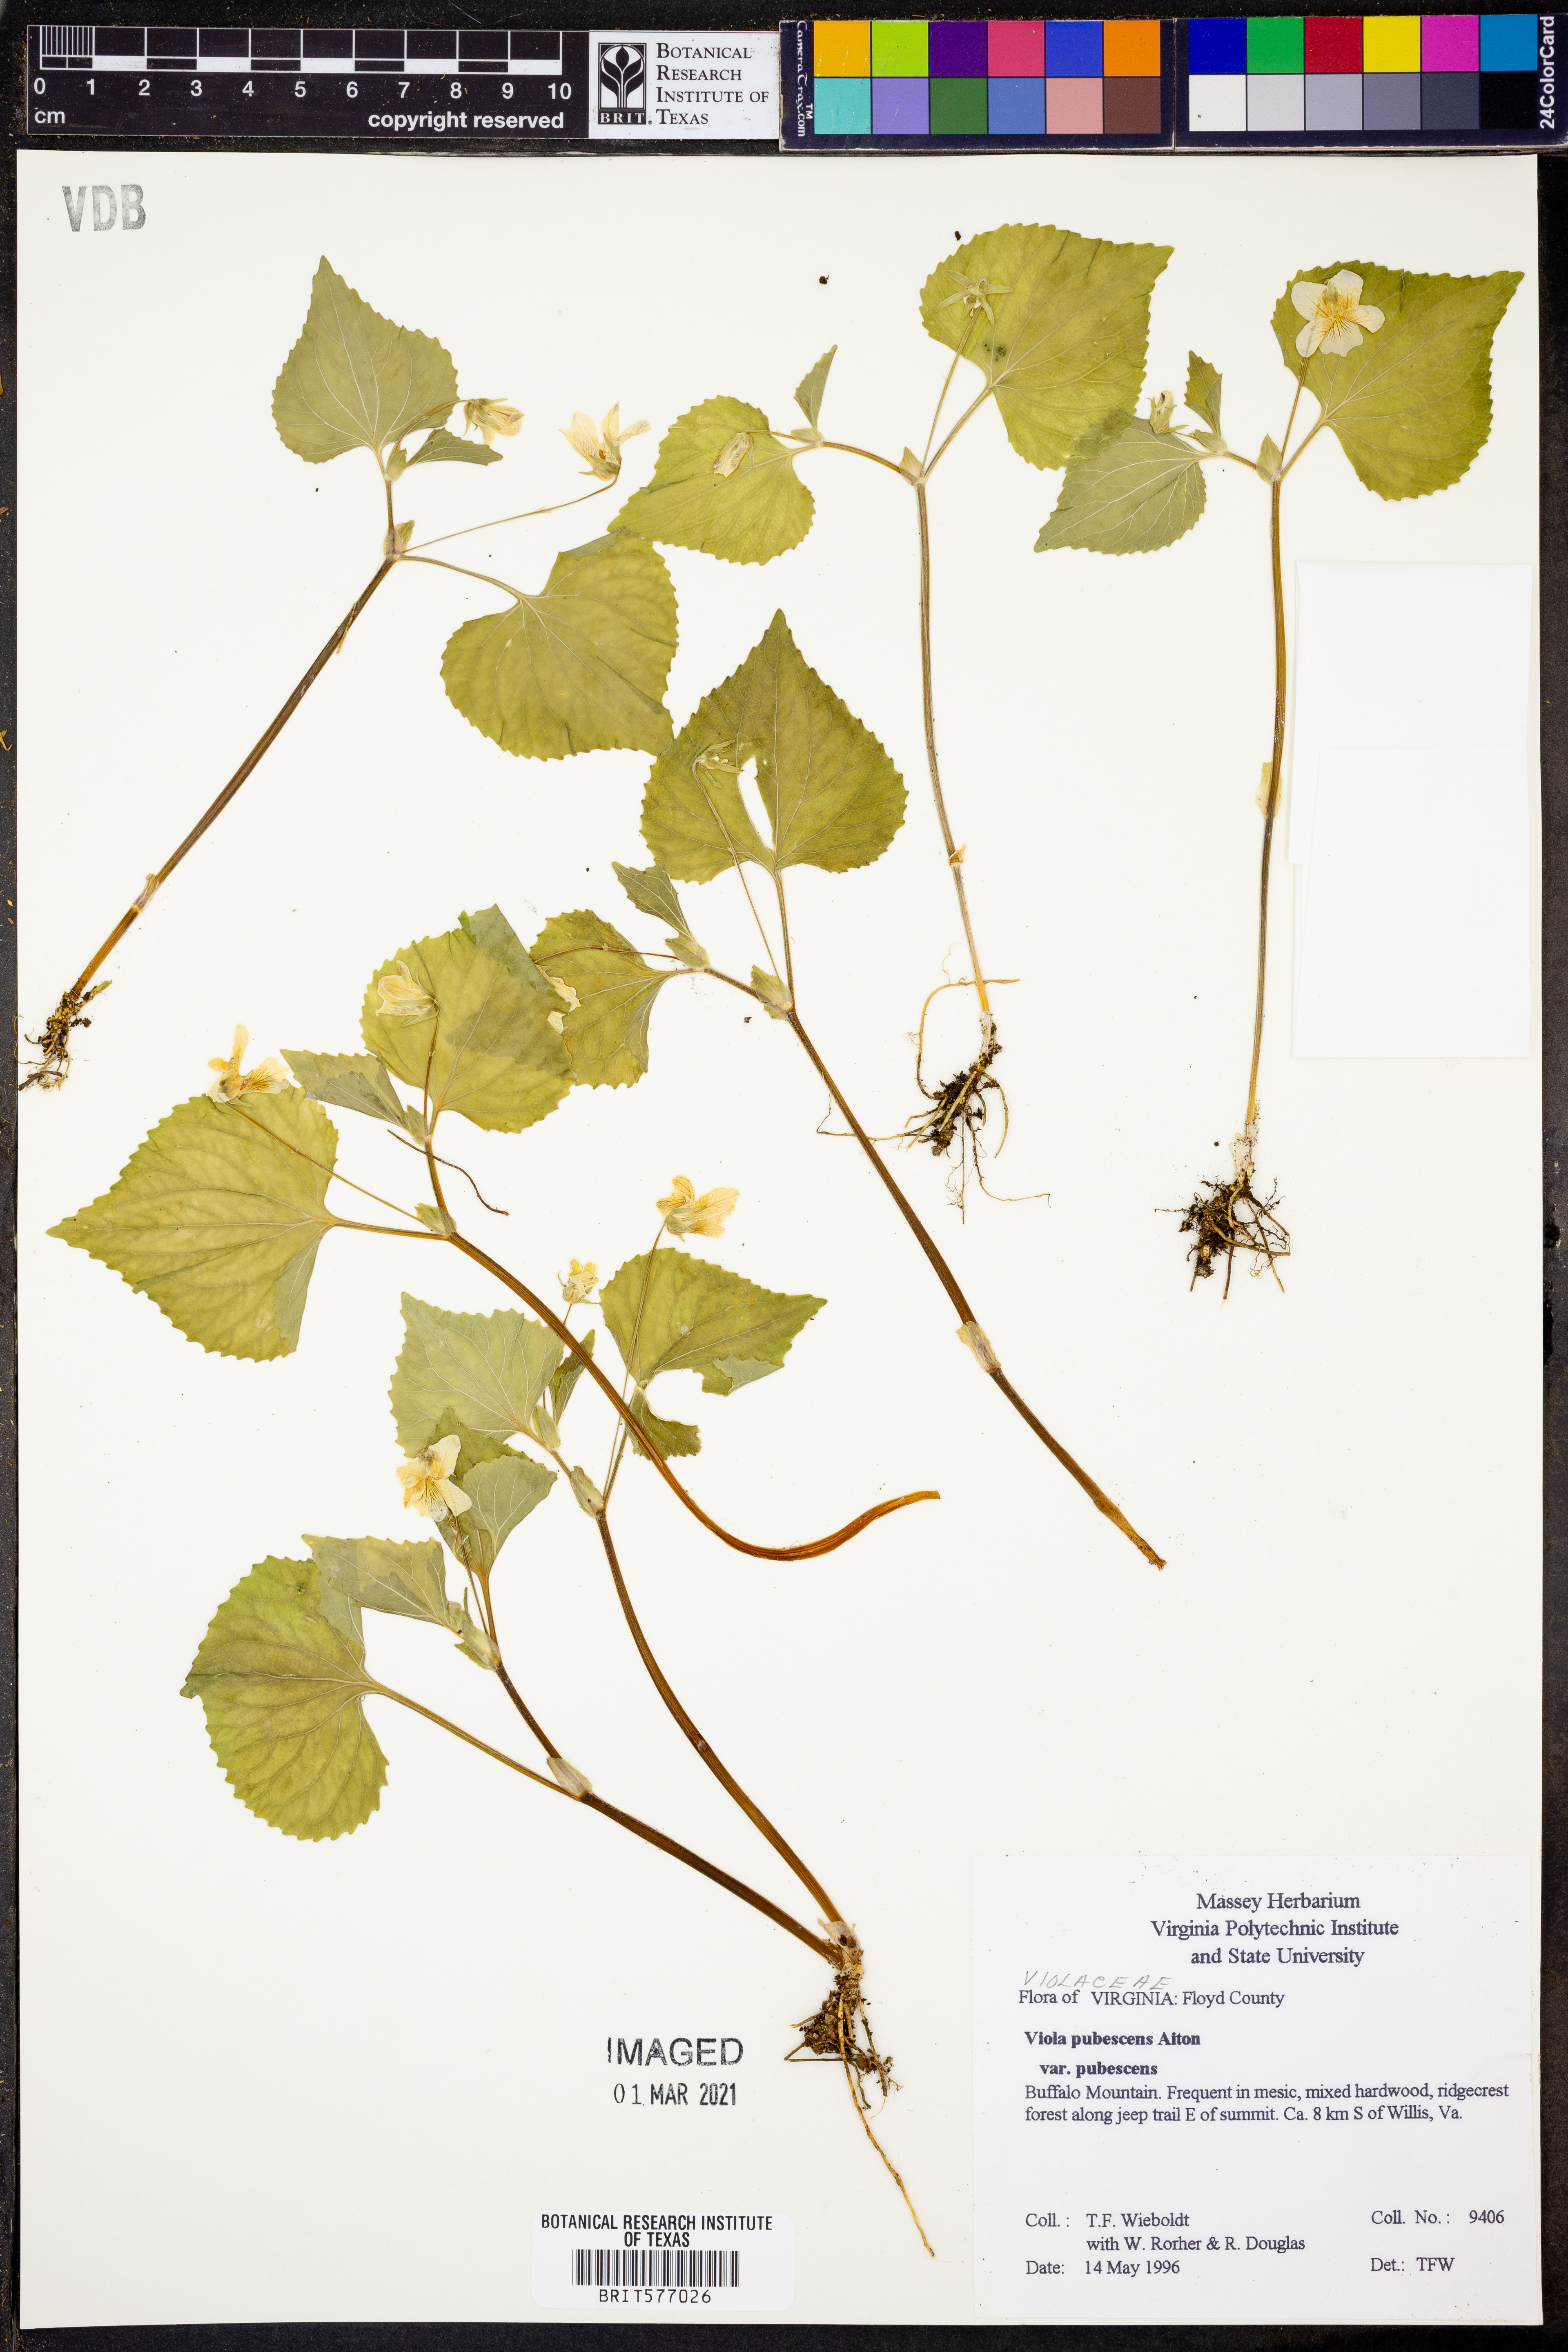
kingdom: Plantae
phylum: Tracheophyta
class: Magnoliopsida
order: Malpighiales
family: Violaceae
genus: Viola
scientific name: Viola pubescens
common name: Yellow forest violet
